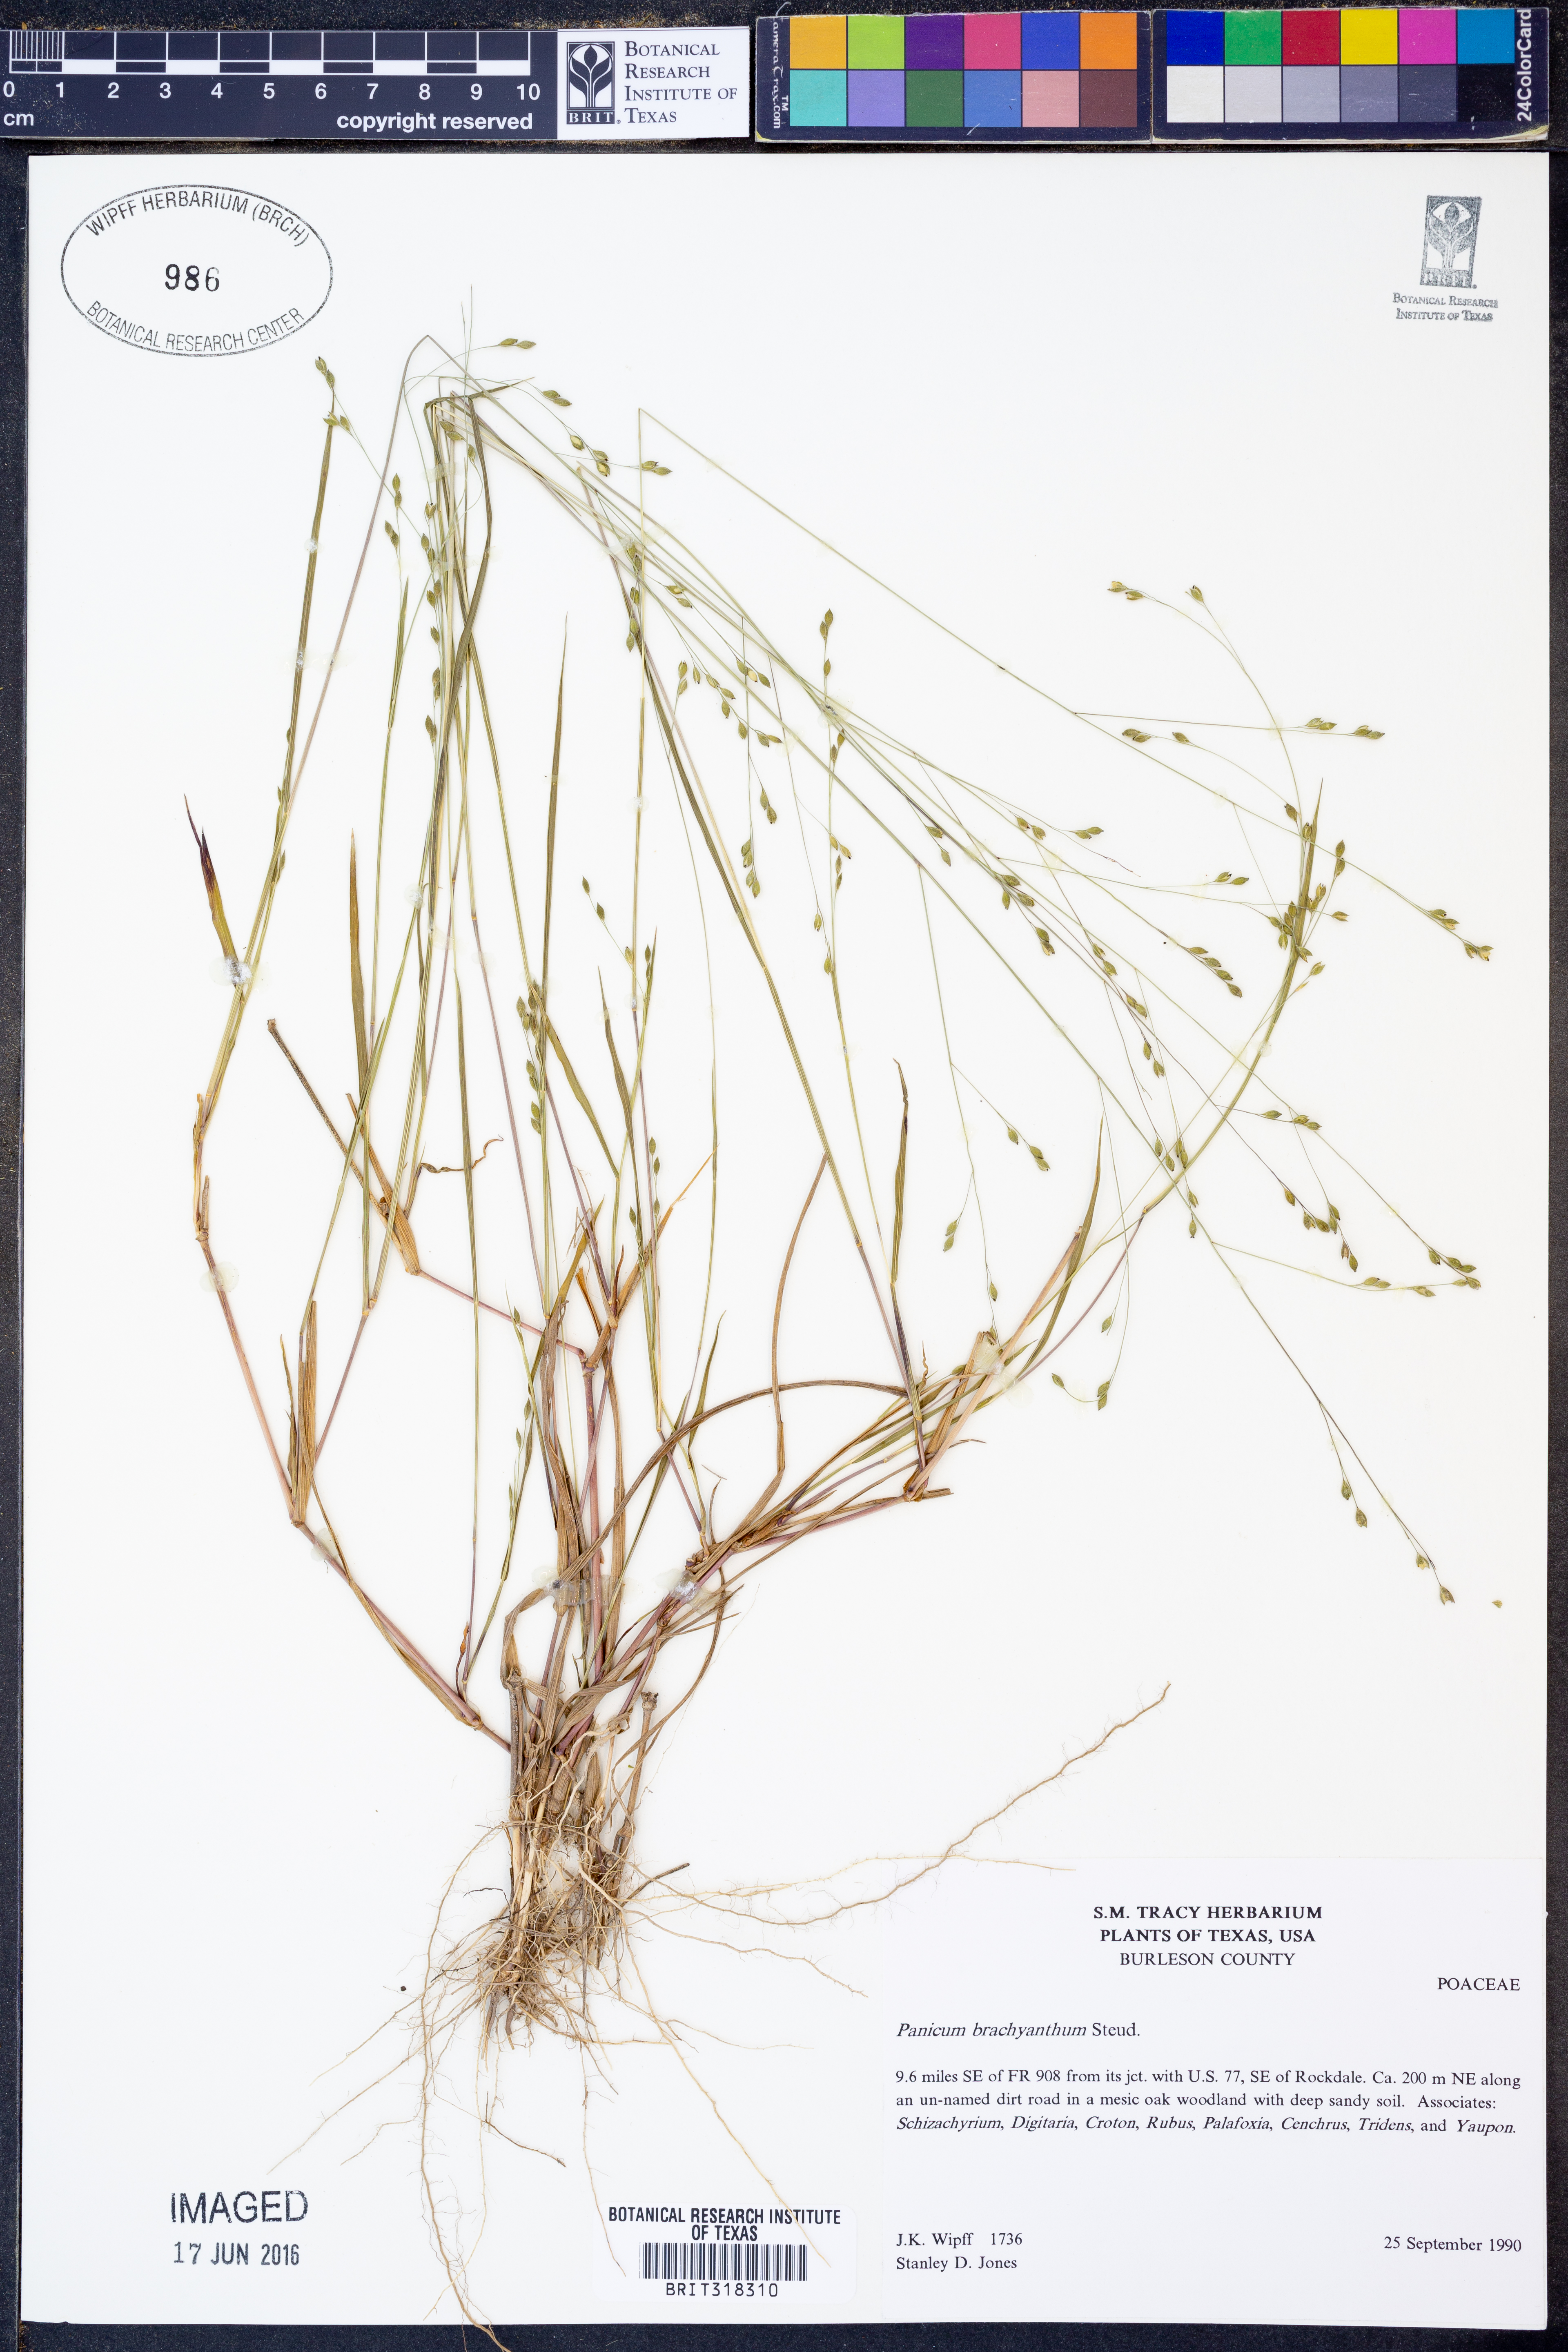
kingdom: Plantae
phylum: Tracheophyta
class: Liliopsida
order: Poales
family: Poaceae
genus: Kellochloa
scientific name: Kellochloa brachyantha
